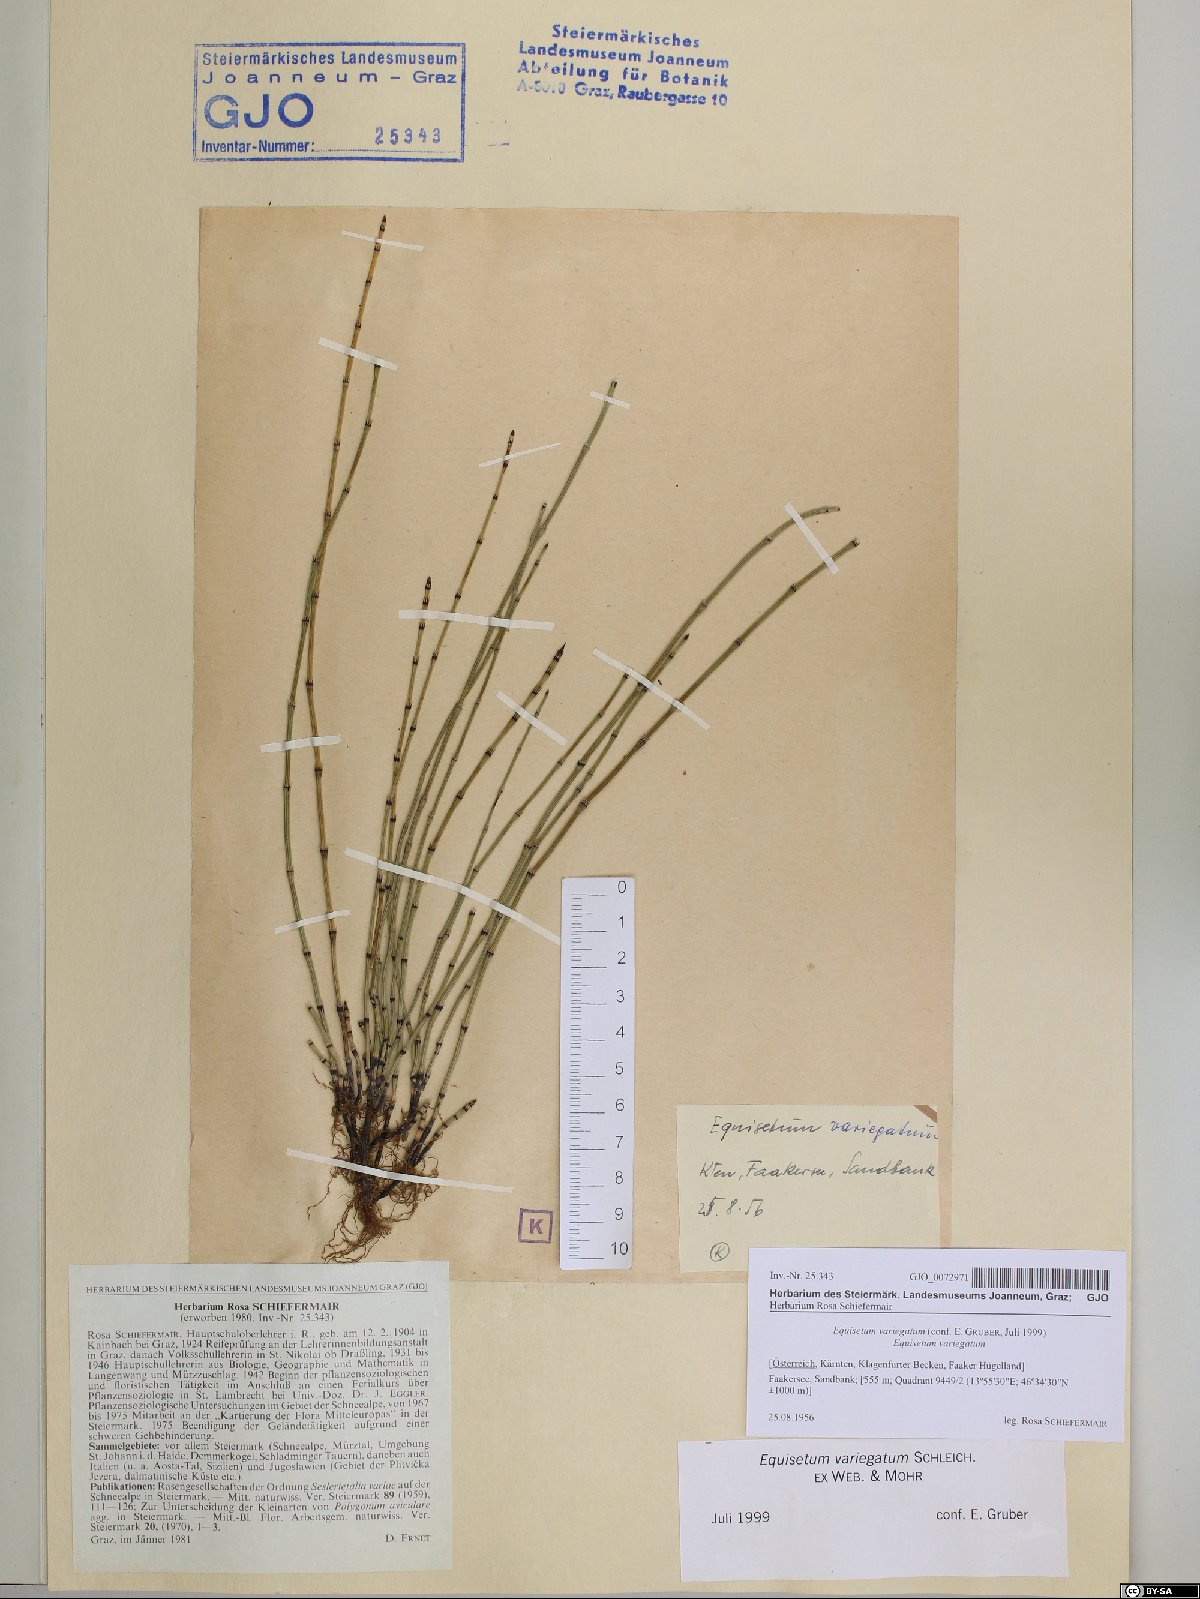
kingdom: Plantae
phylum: Tracheophyta
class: Polypodiopsida
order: Equisetales
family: Equisetaceae
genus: Equisetum
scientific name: Equisetum variegatum
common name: Variegated horsetail
